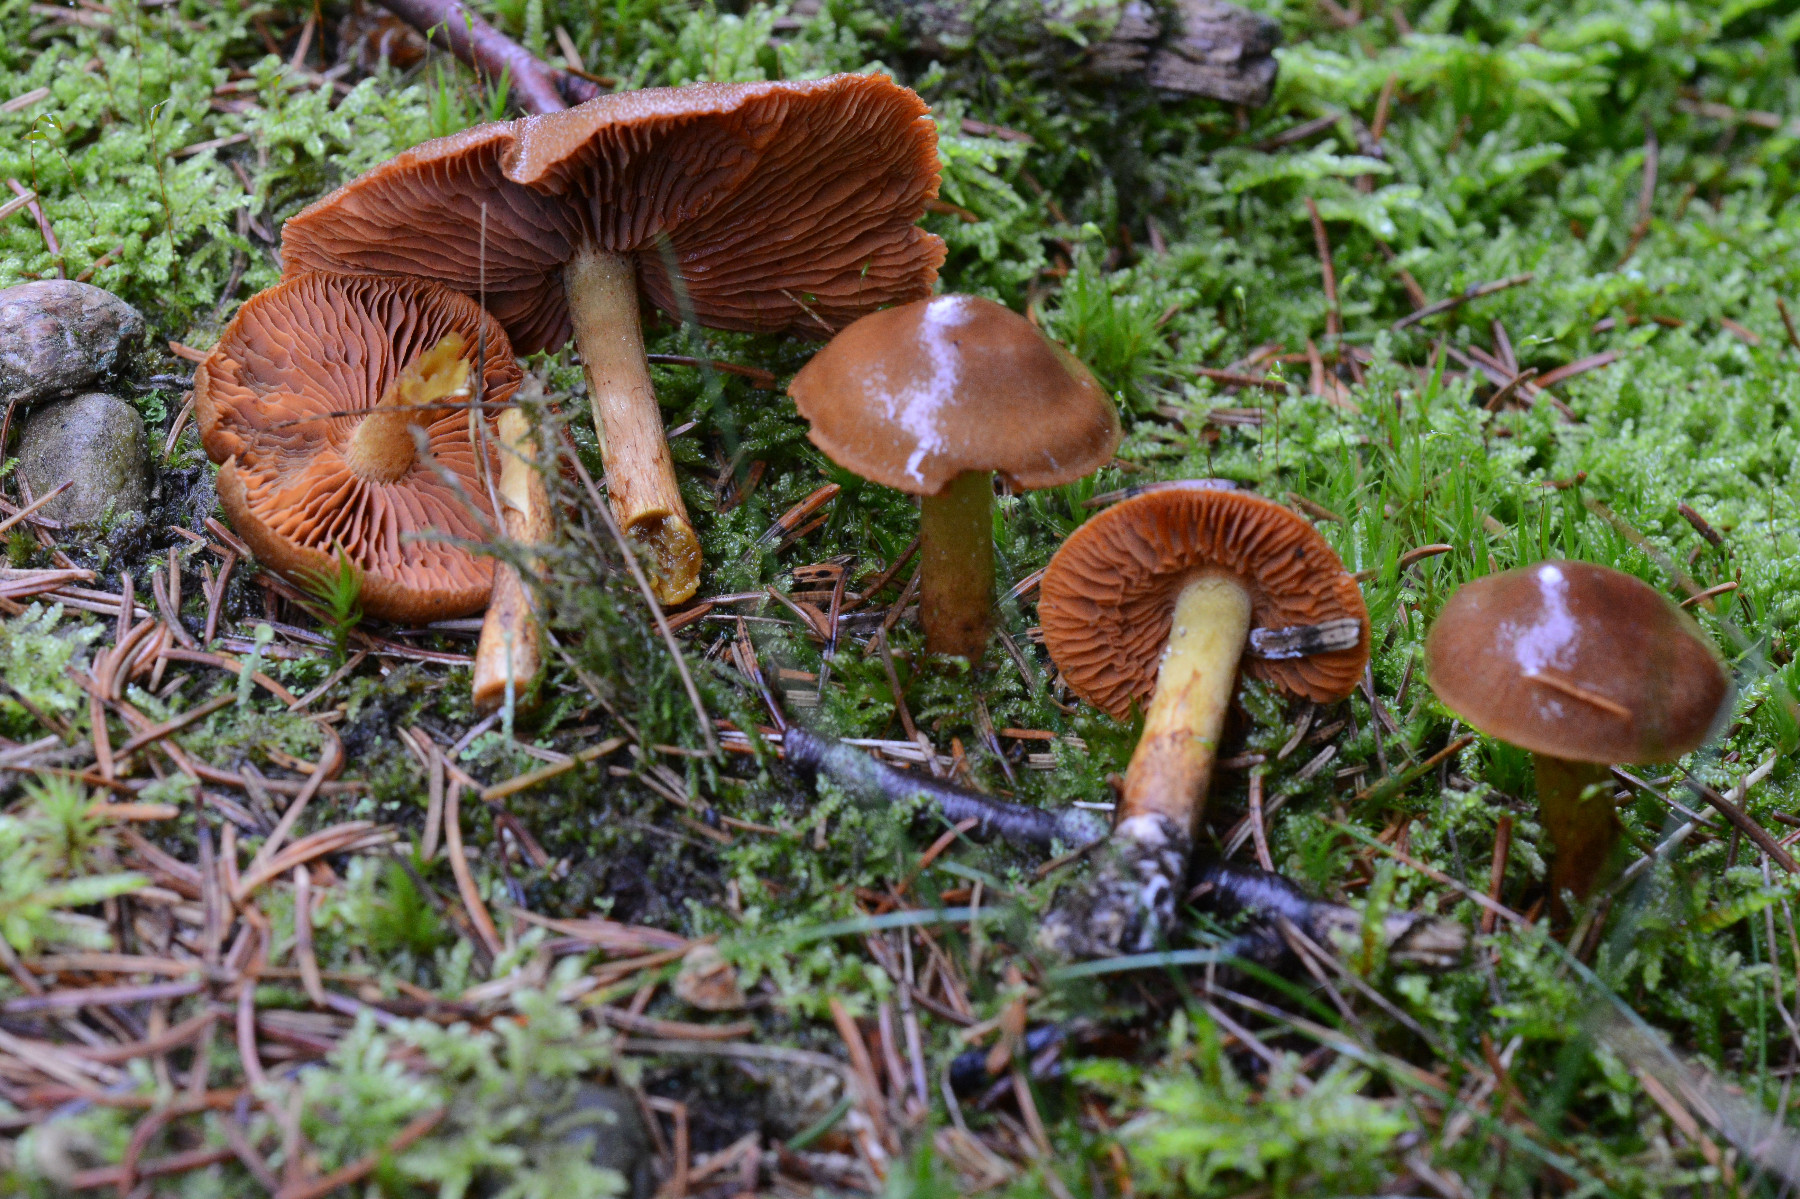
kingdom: Fungi
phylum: Basidiomycota
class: Agaricomycetes
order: Agaricales
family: Cortinariaceae
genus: Cortinarius
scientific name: Cortinarius eleonorae
